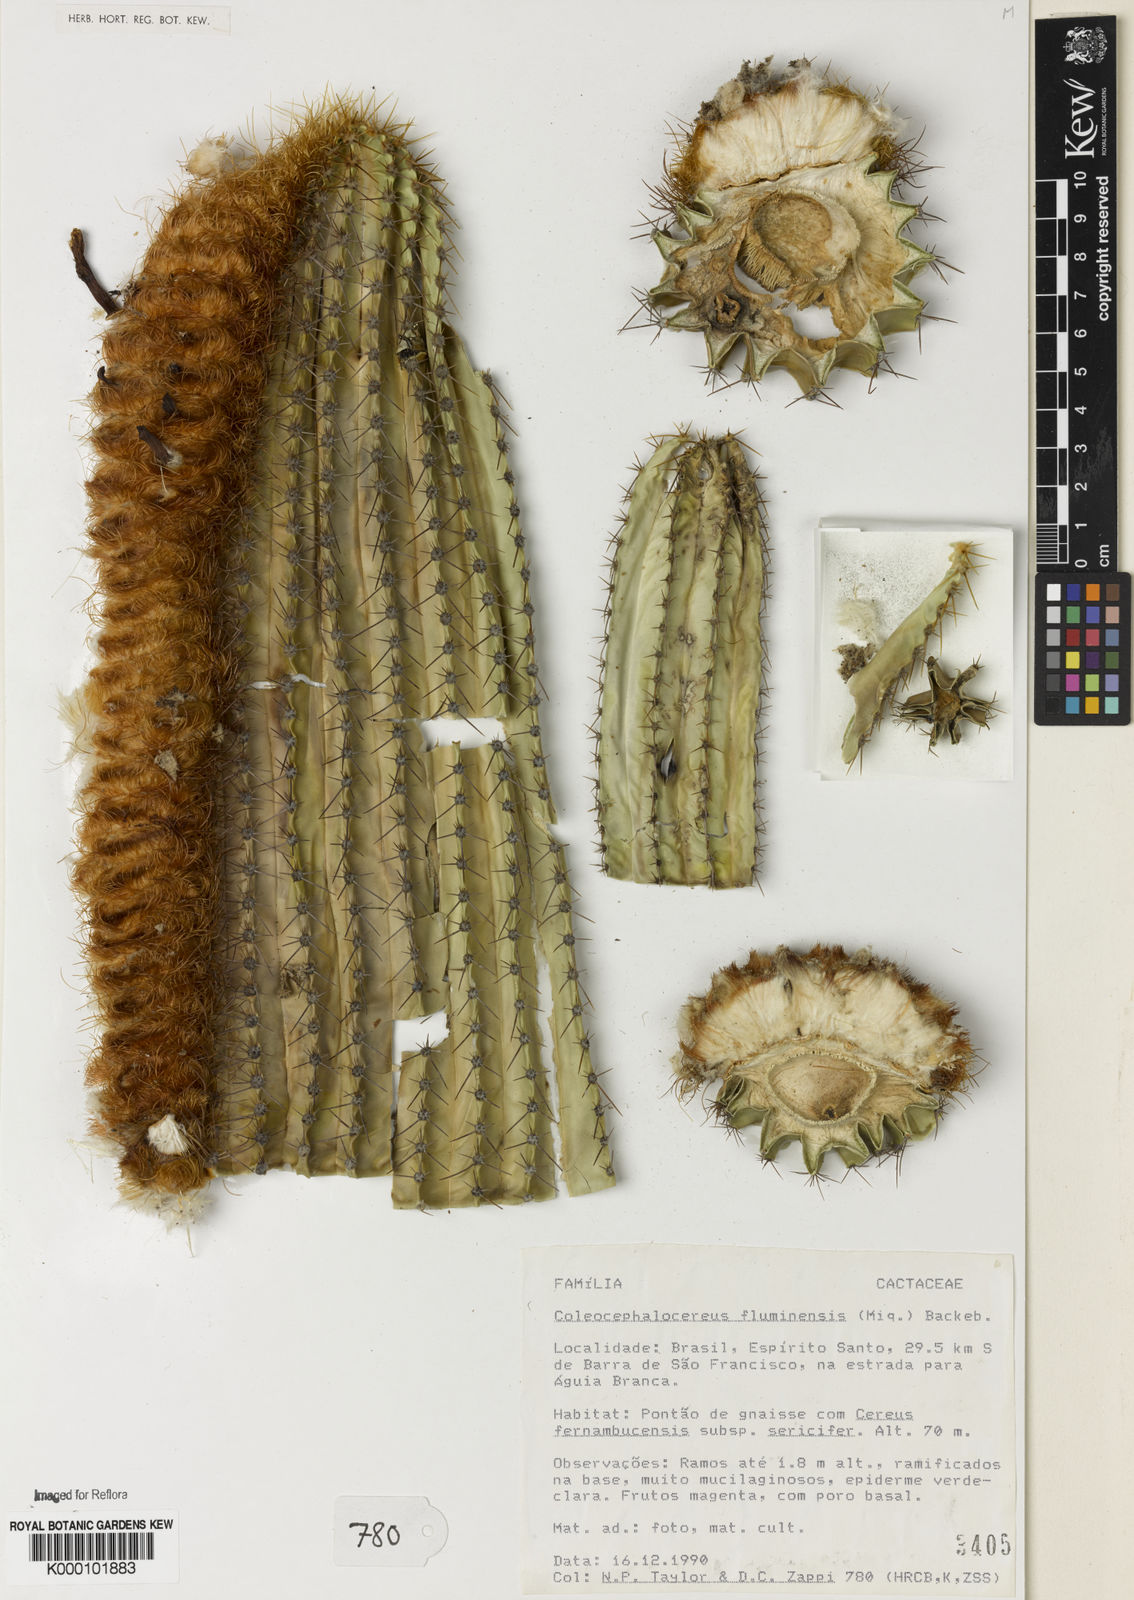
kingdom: Plantae
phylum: Tracheophyta
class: Magnoliopsida
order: Caryophyllales
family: Cactaceae
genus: Coleocephalocereus
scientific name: Coleocephalocereus fluminensis
